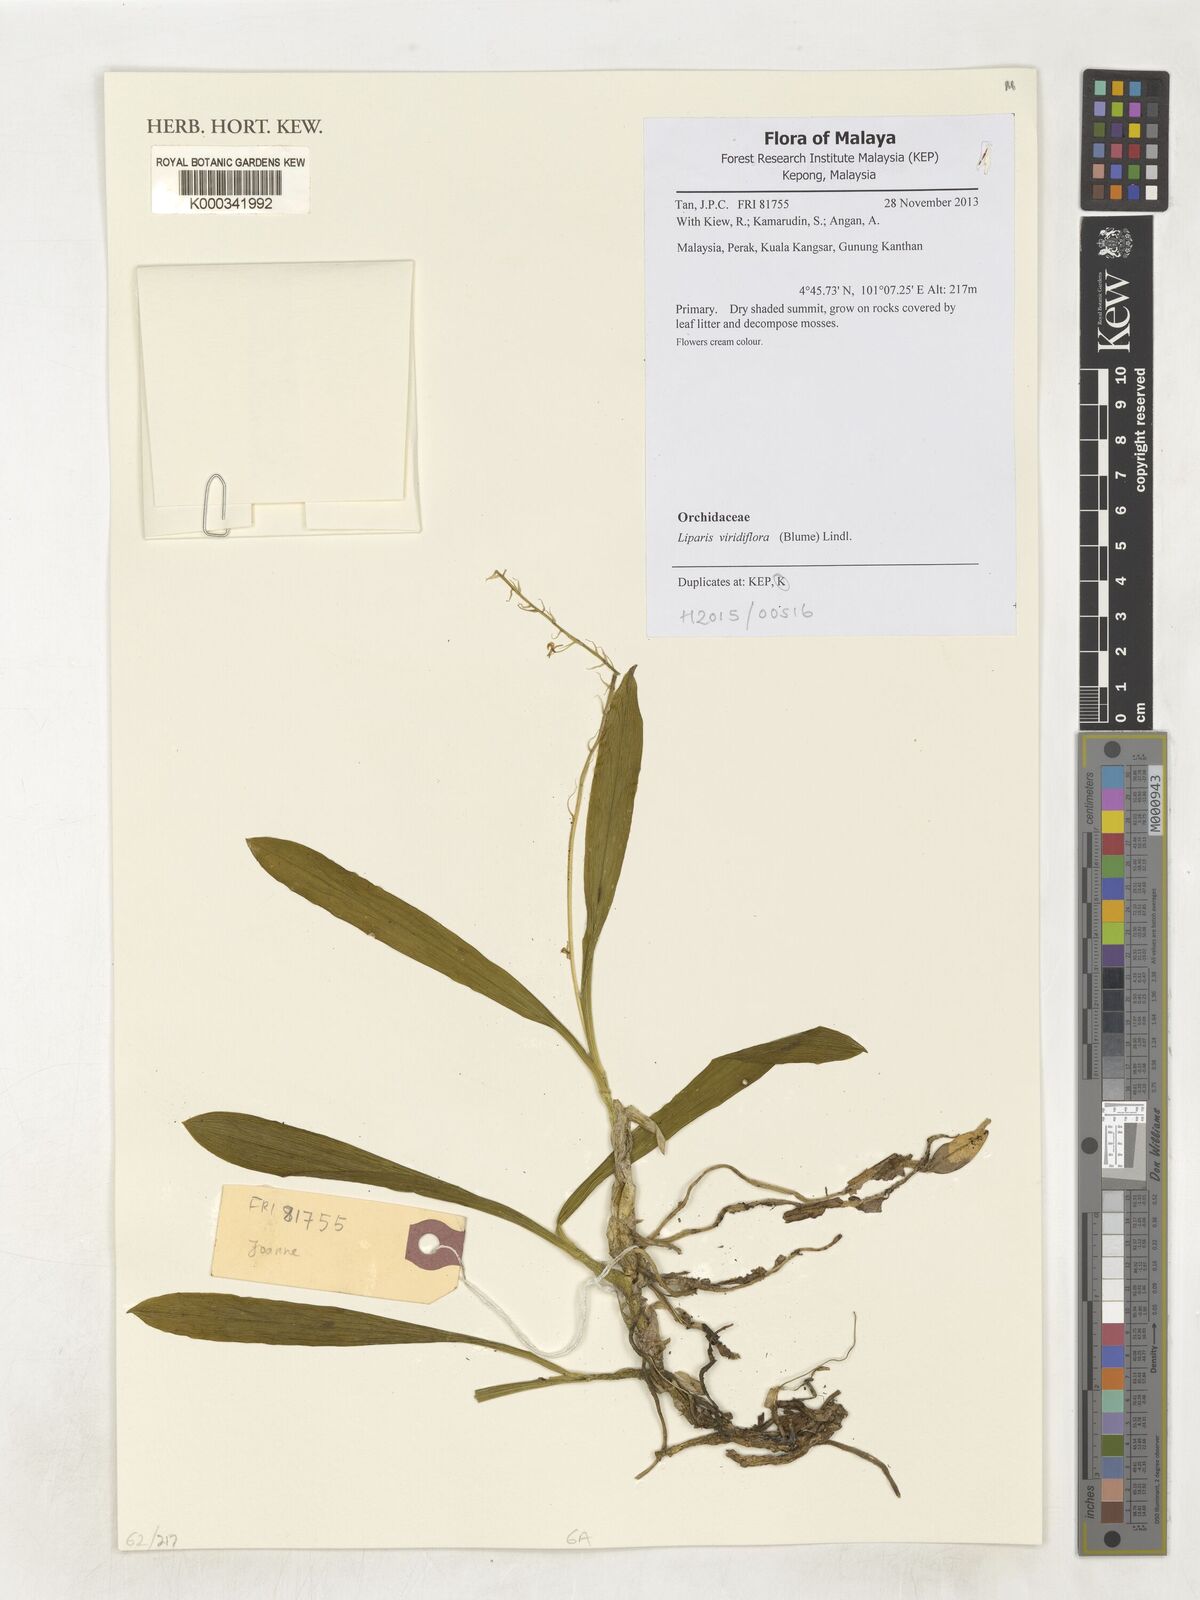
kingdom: Plantae
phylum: Tracheophyta
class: Liliopsida
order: Asparagales
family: Orchidaceae
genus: Liparis
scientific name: Liparis viridiflora
